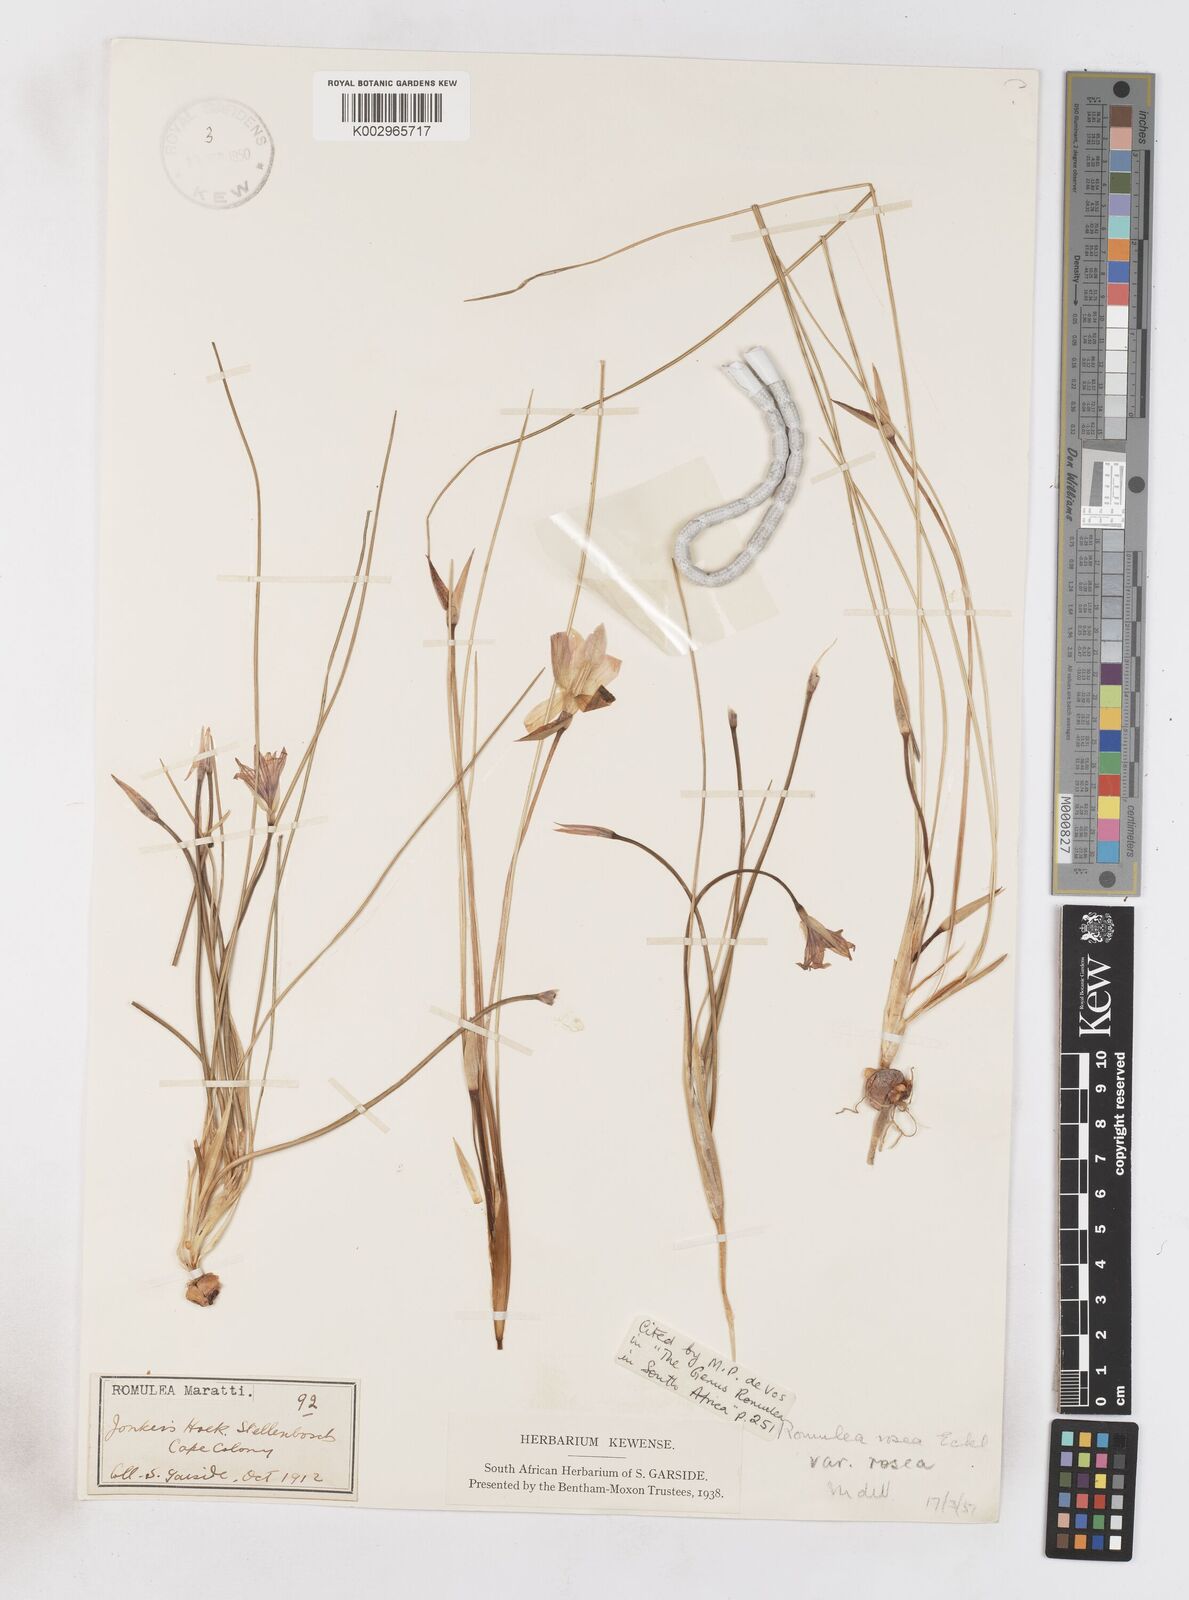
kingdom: Plantae
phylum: Tracheophyta
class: Liliopsida
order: Asparagales
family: Iridaceae
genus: Romulea
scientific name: Romulea rosea
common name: Oniongrass
